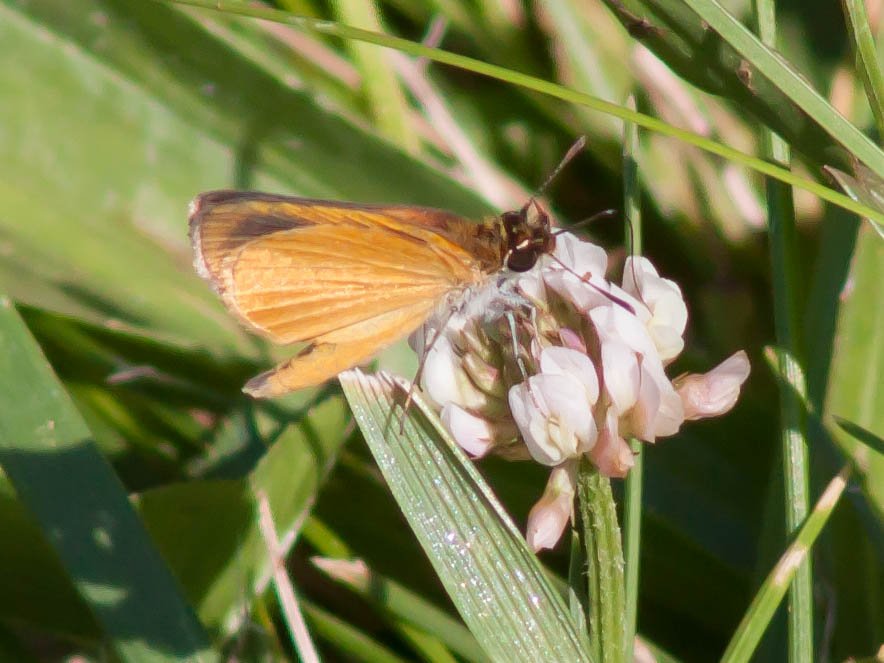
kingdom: Animalia
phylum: Arthropoda
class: Insecta
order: Lepidoptera
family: Hesperiidae
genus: Ancyloxypha
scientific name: Ancyloxypha numitor
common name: Least Skipper
